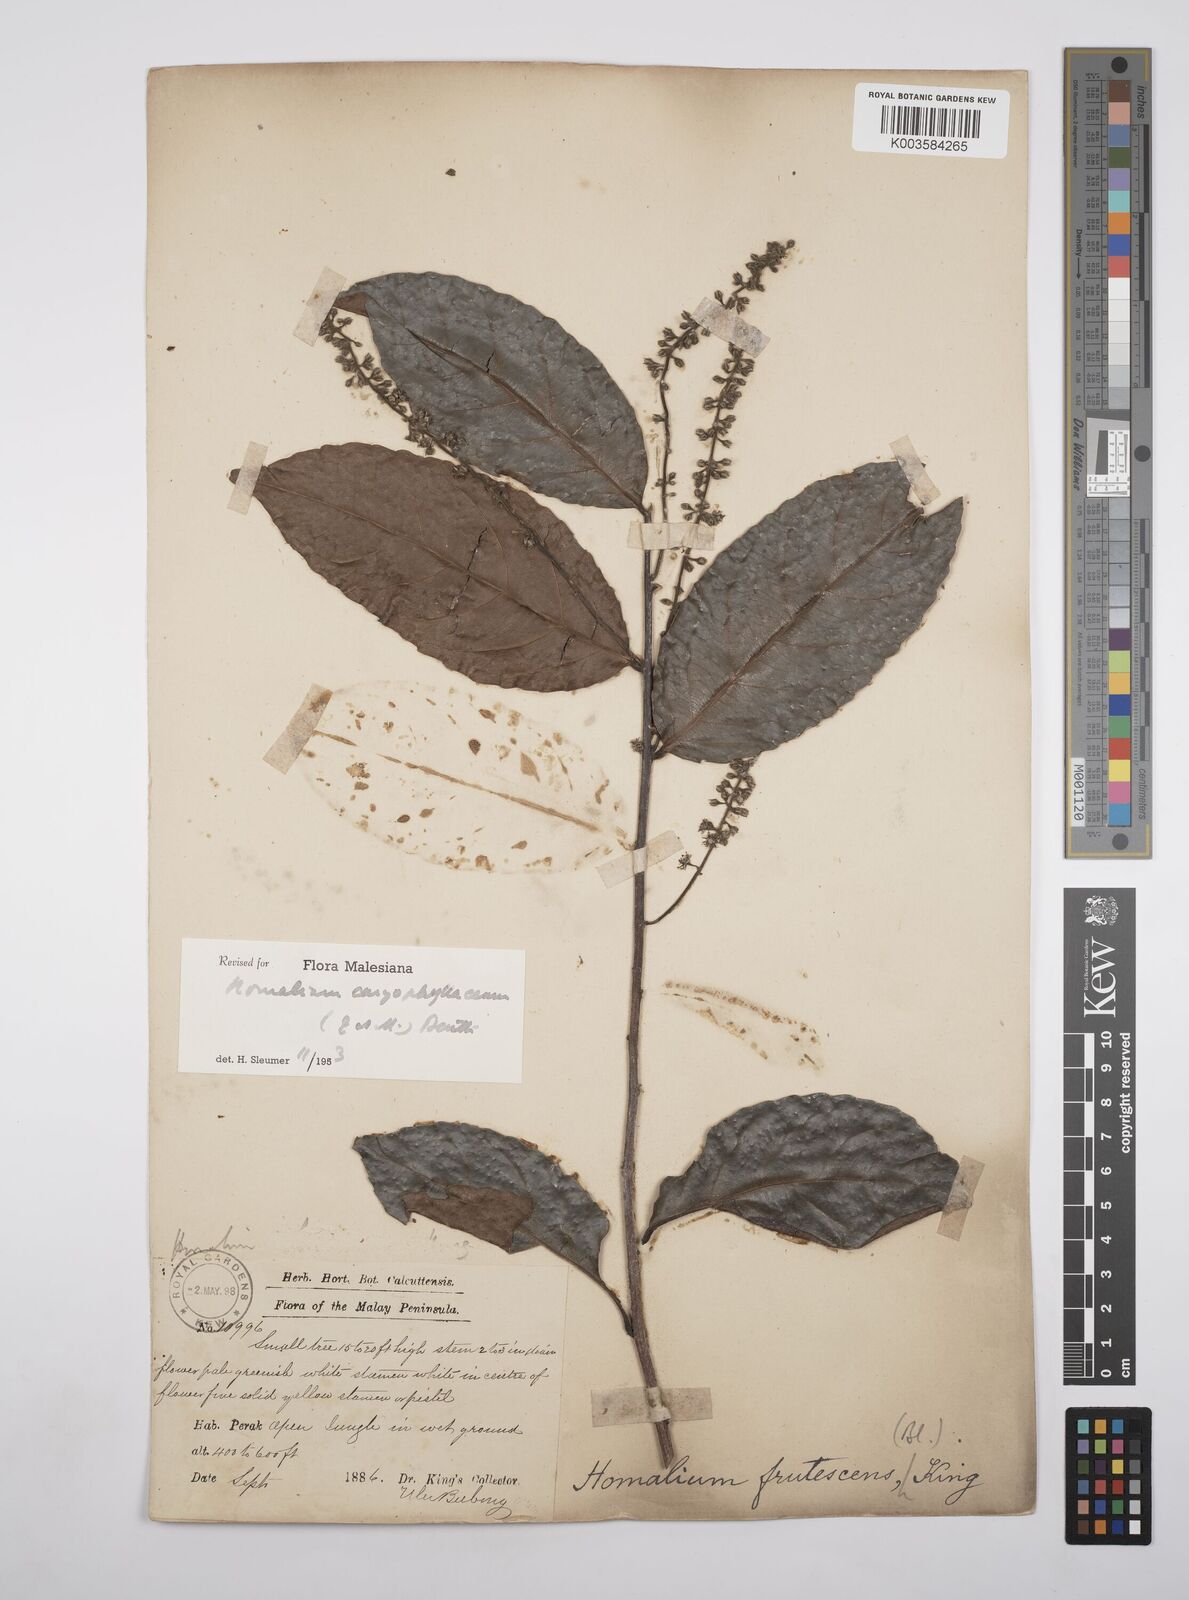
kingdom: Plantae
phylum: Tracheophyta
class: Magnoliopsida
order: Malpighiales
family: Salicaceae
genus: Homalium
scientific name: Homalium caryophyllaceum
